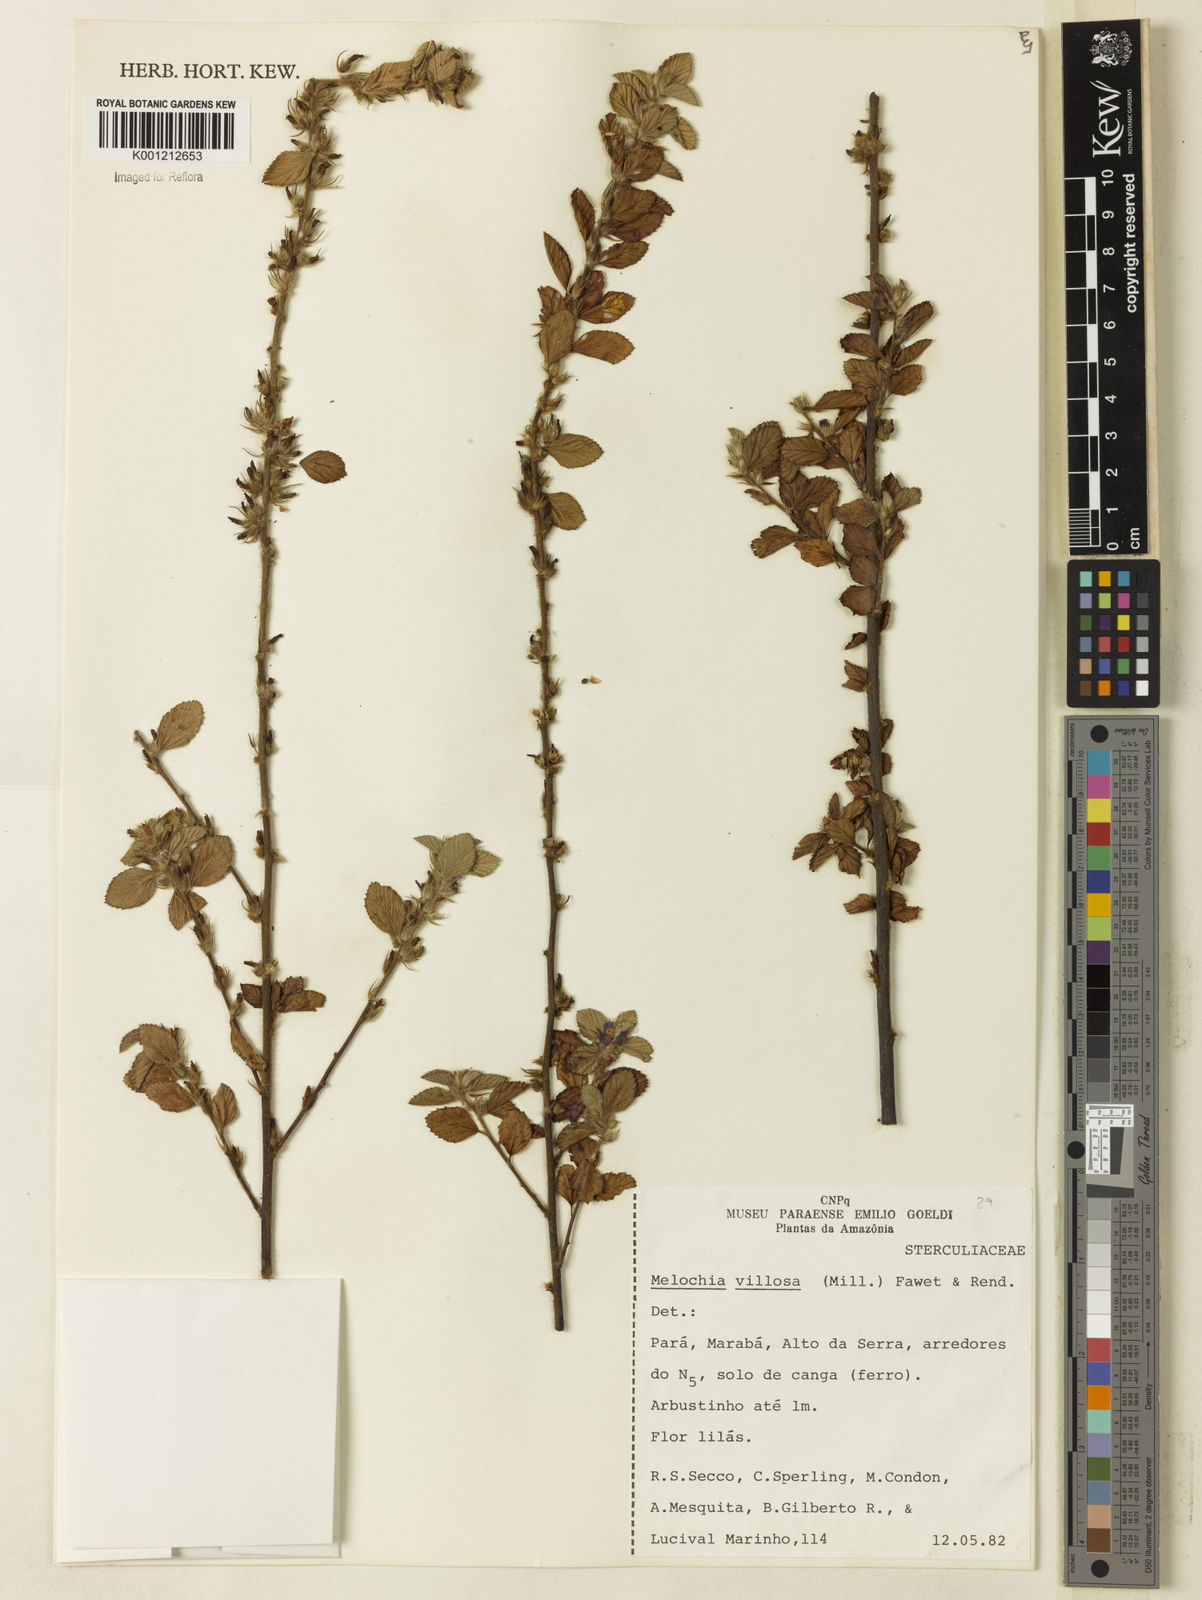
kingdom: Plantae
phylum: Tracheophyta
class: Magnoliopsida
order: Malvales
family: Malvaceae
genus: Melochia
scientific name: Melochia spicata
